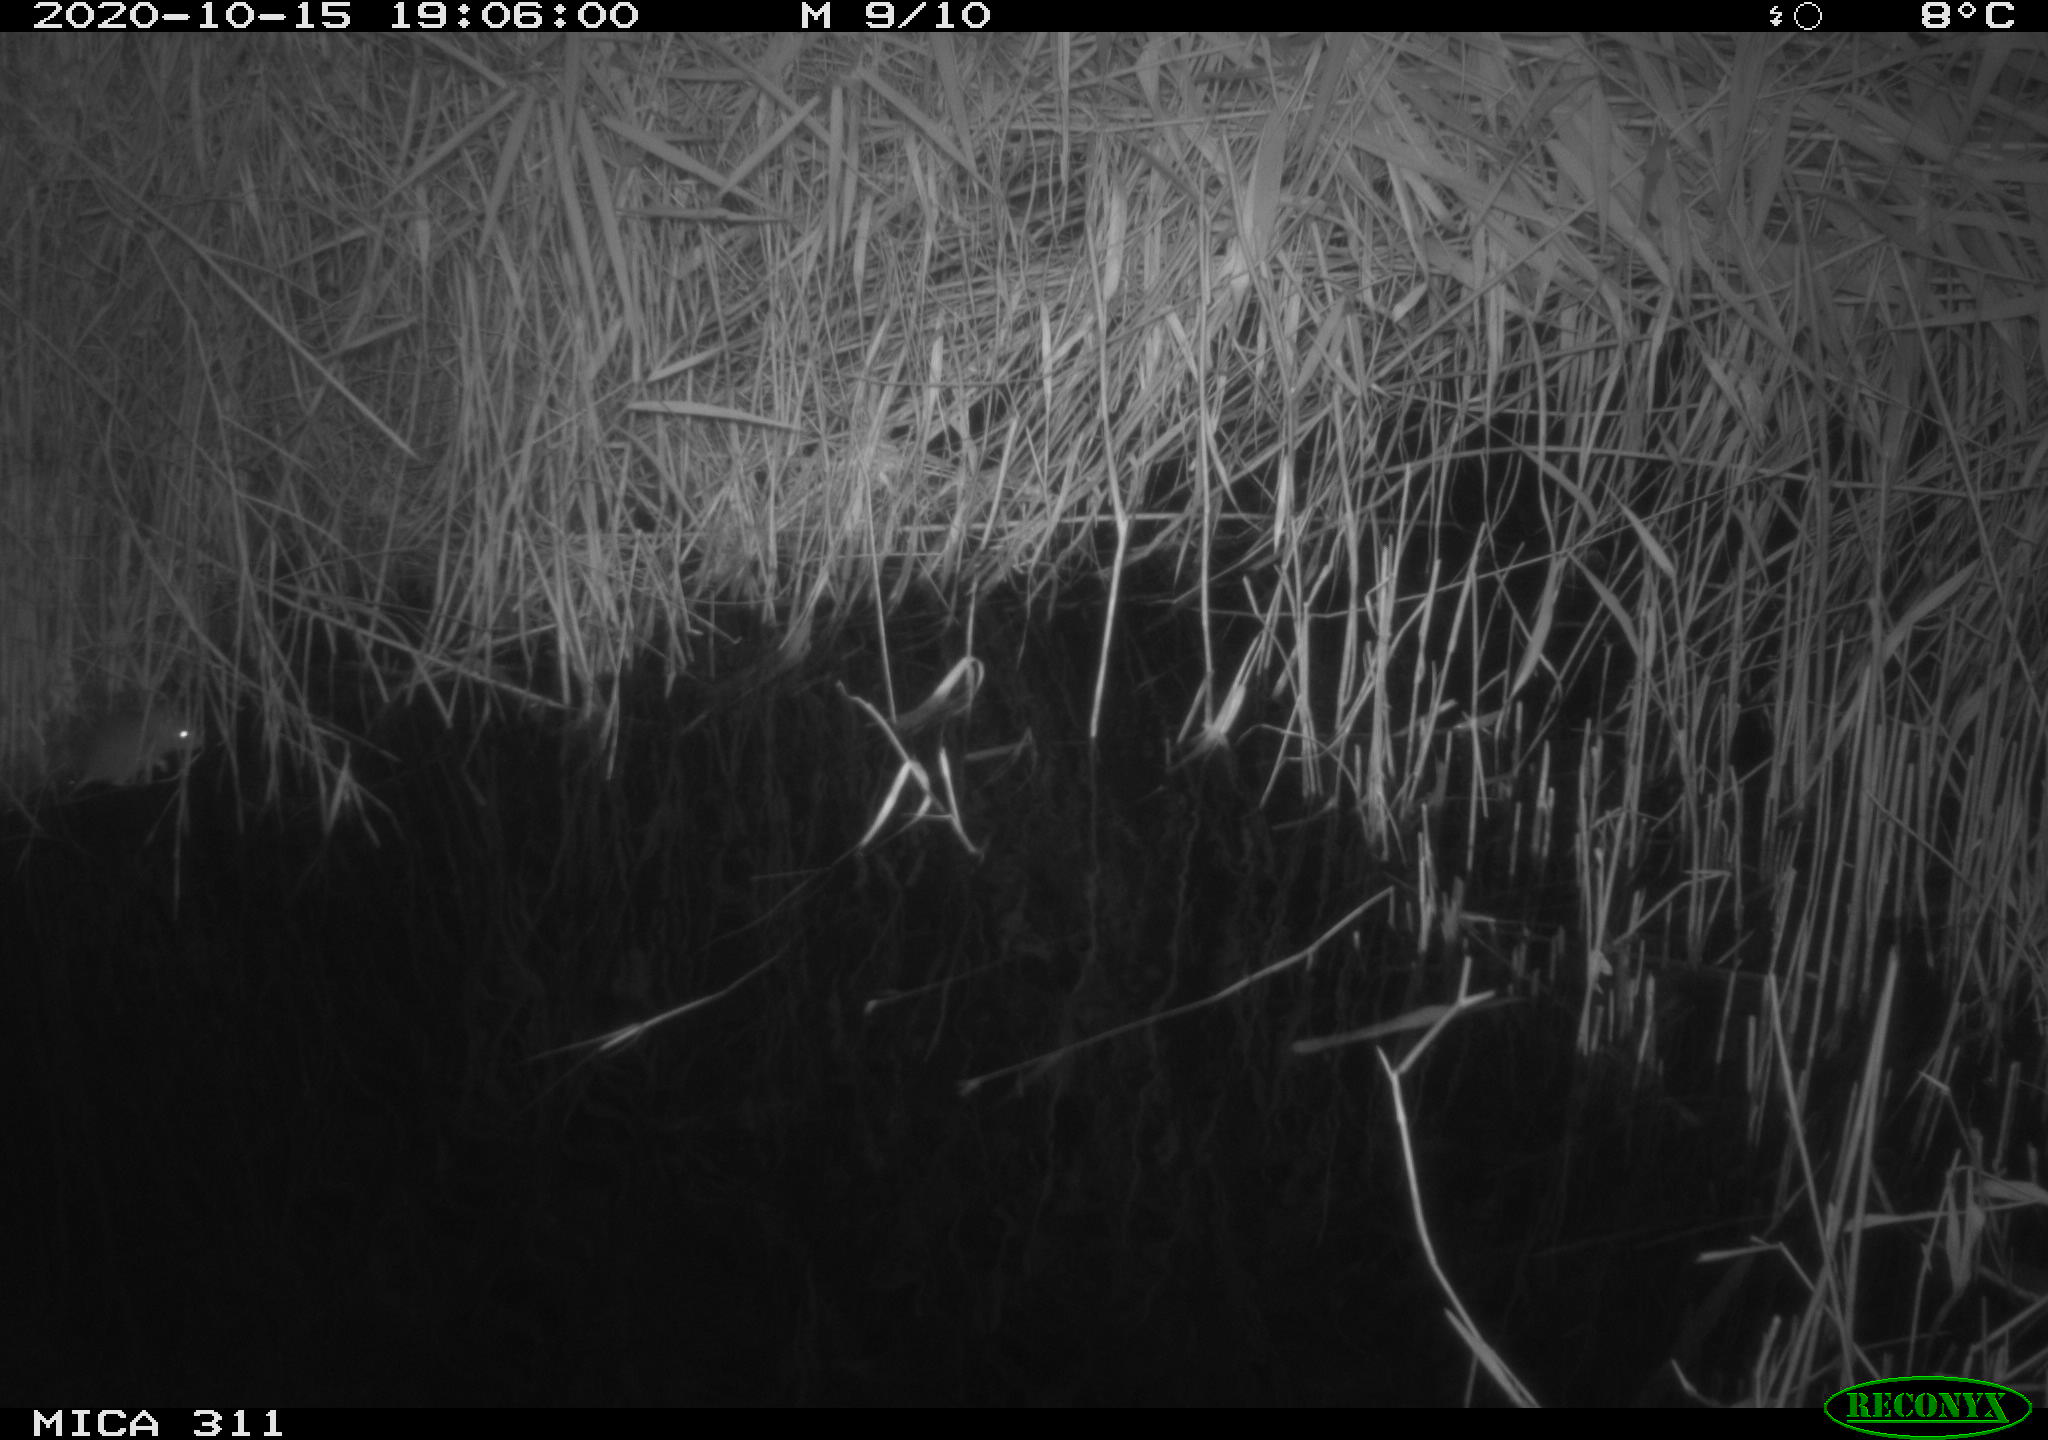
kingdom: Animalia
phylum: Chordata
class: Mammalia
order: Rodentia
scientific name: Rodentia
